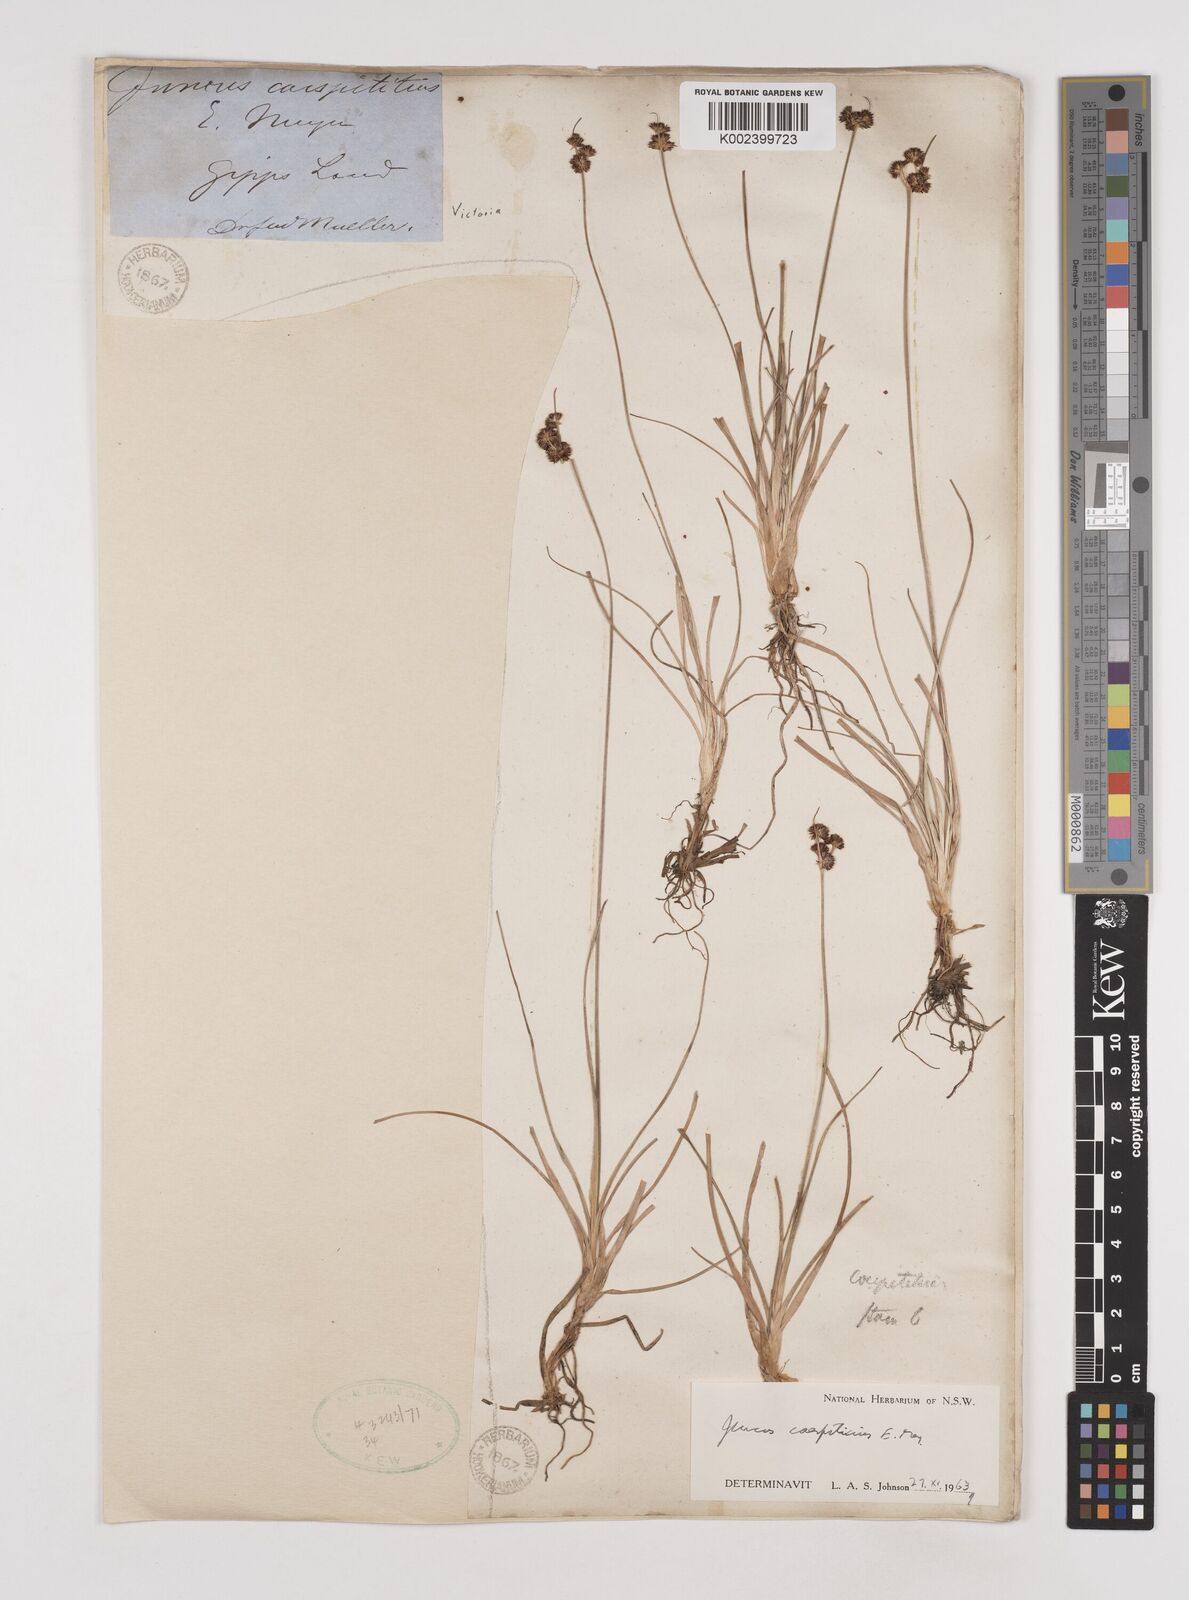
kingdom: Plantae
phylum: Tracheophyta
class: Liliopsida
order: Poales
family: Juncaceae
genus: Juncus
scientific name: Juncus caespiticius
